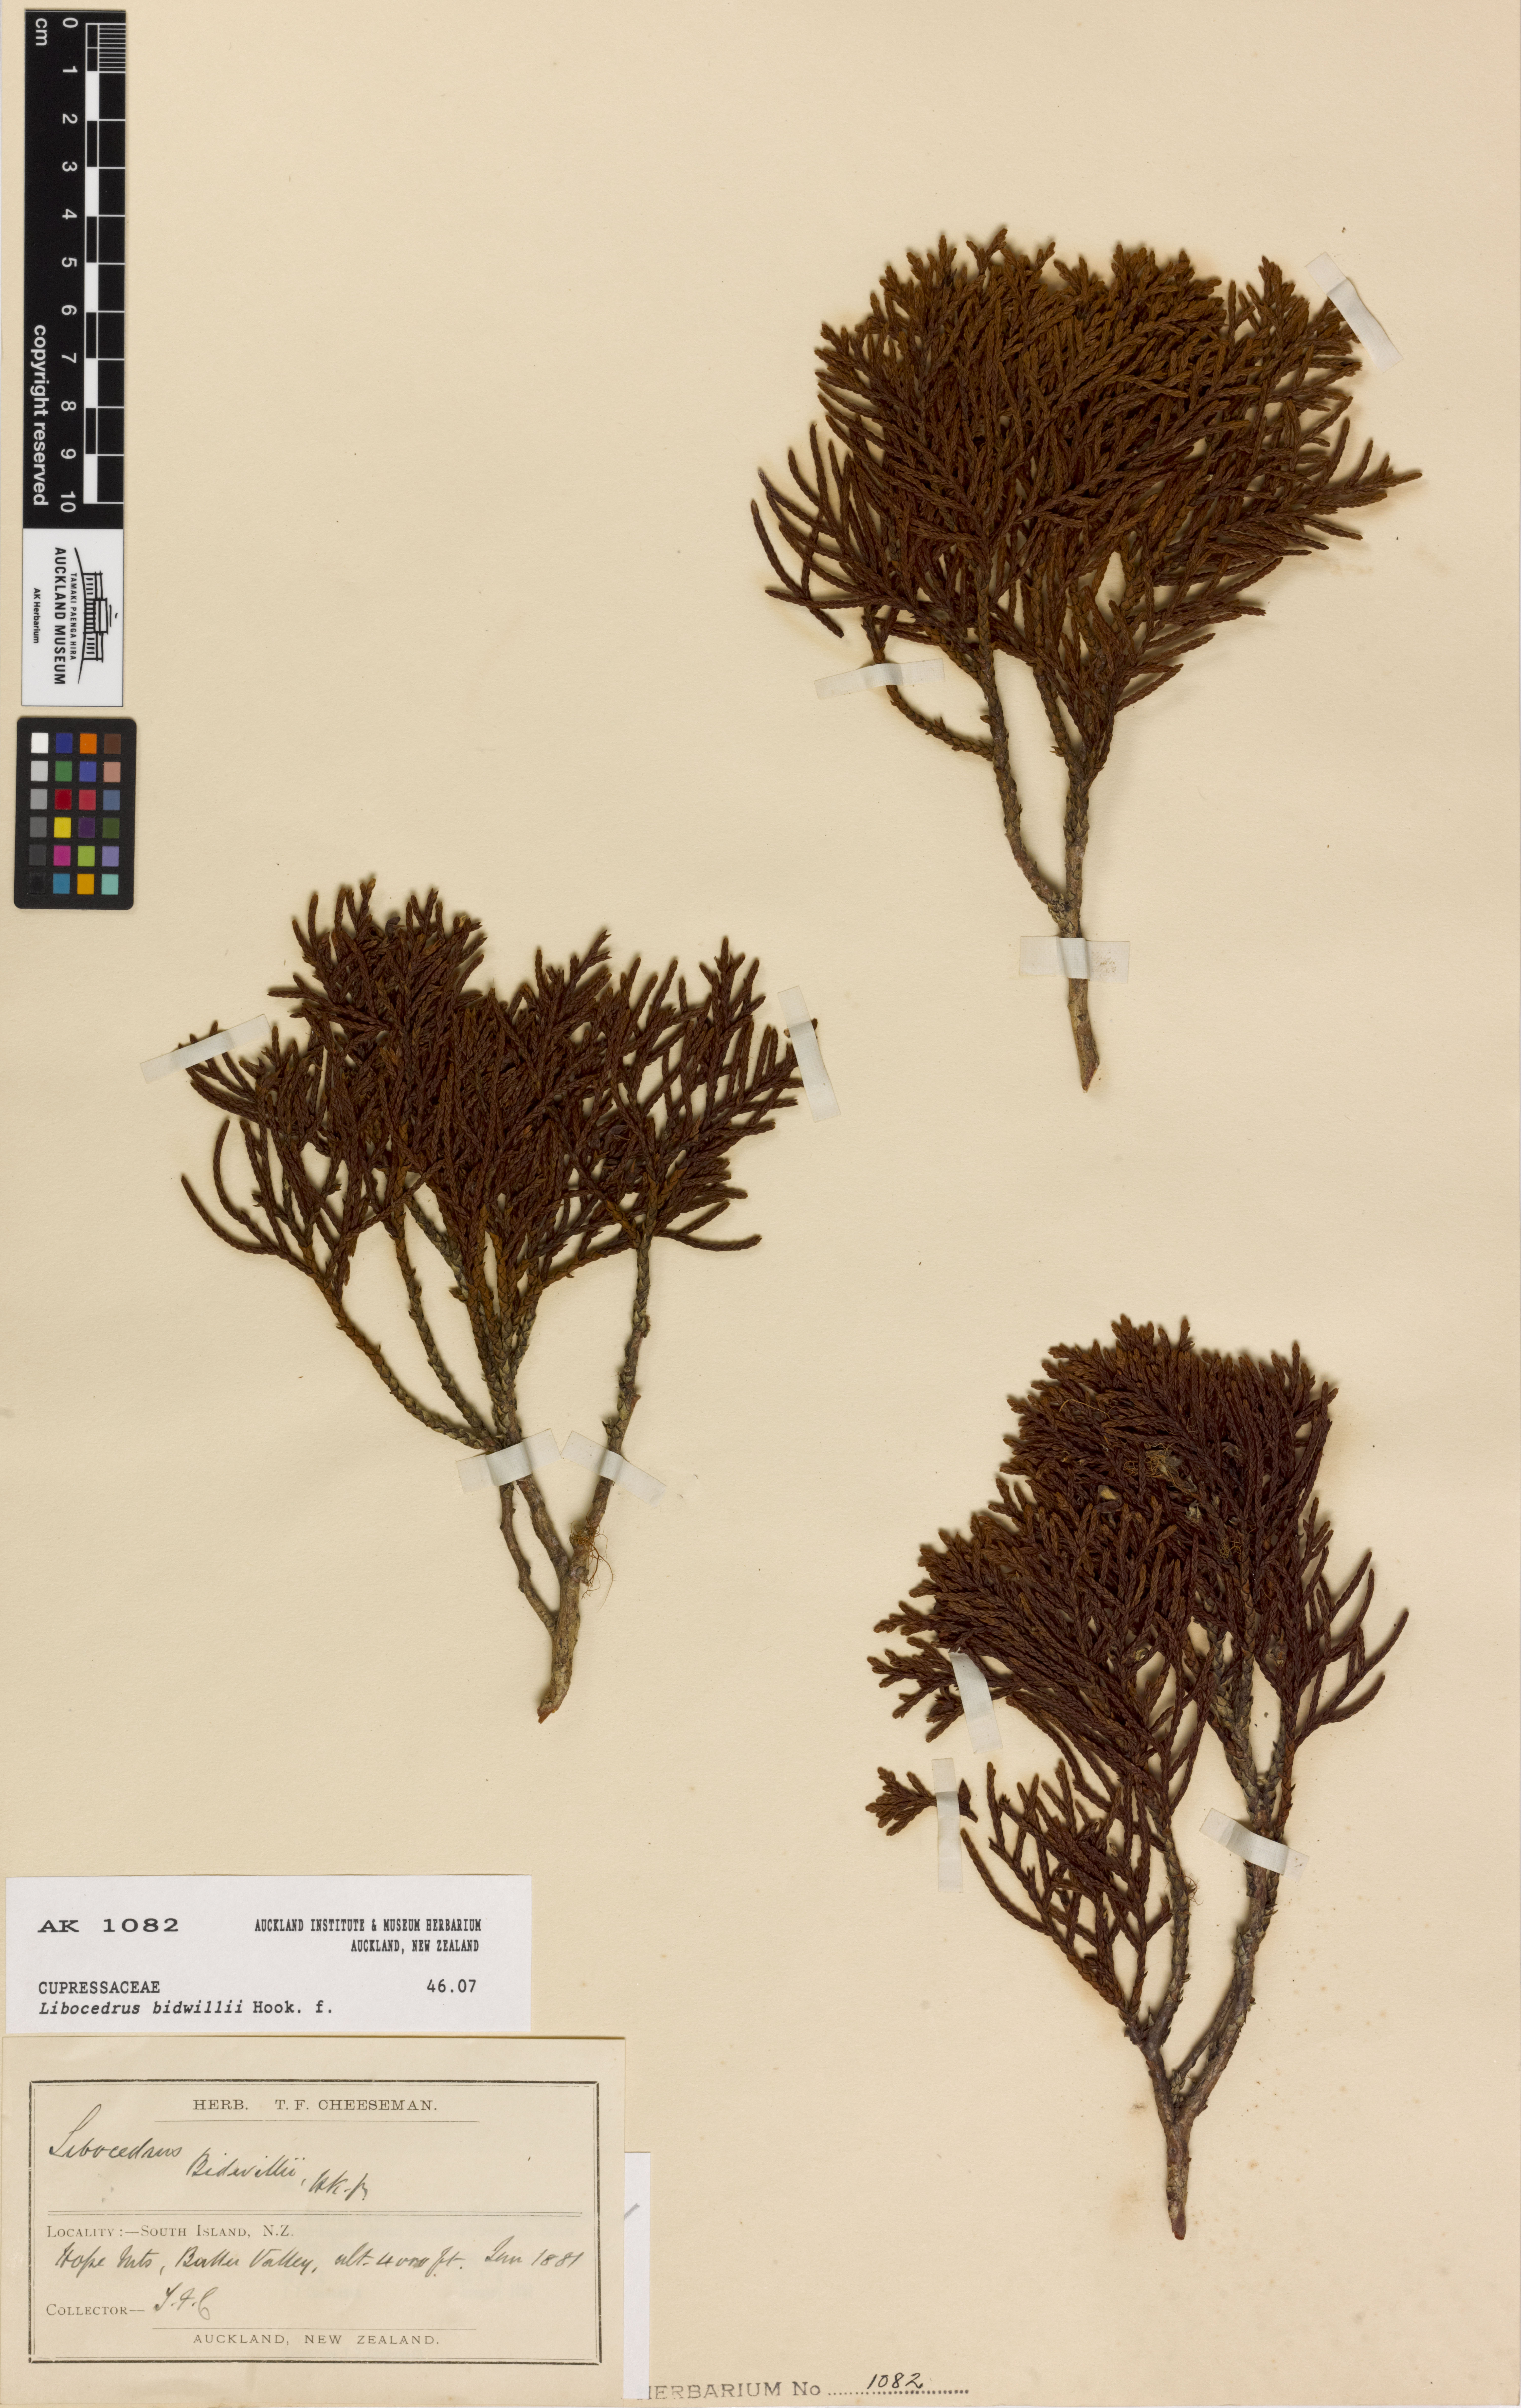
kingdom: Plantae
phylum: Tracheophyta
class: Pinopsida
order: Pinales
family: Cupressaceae
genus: Libocedrus
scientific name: Libocedrus bidwillii
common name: Cedar
